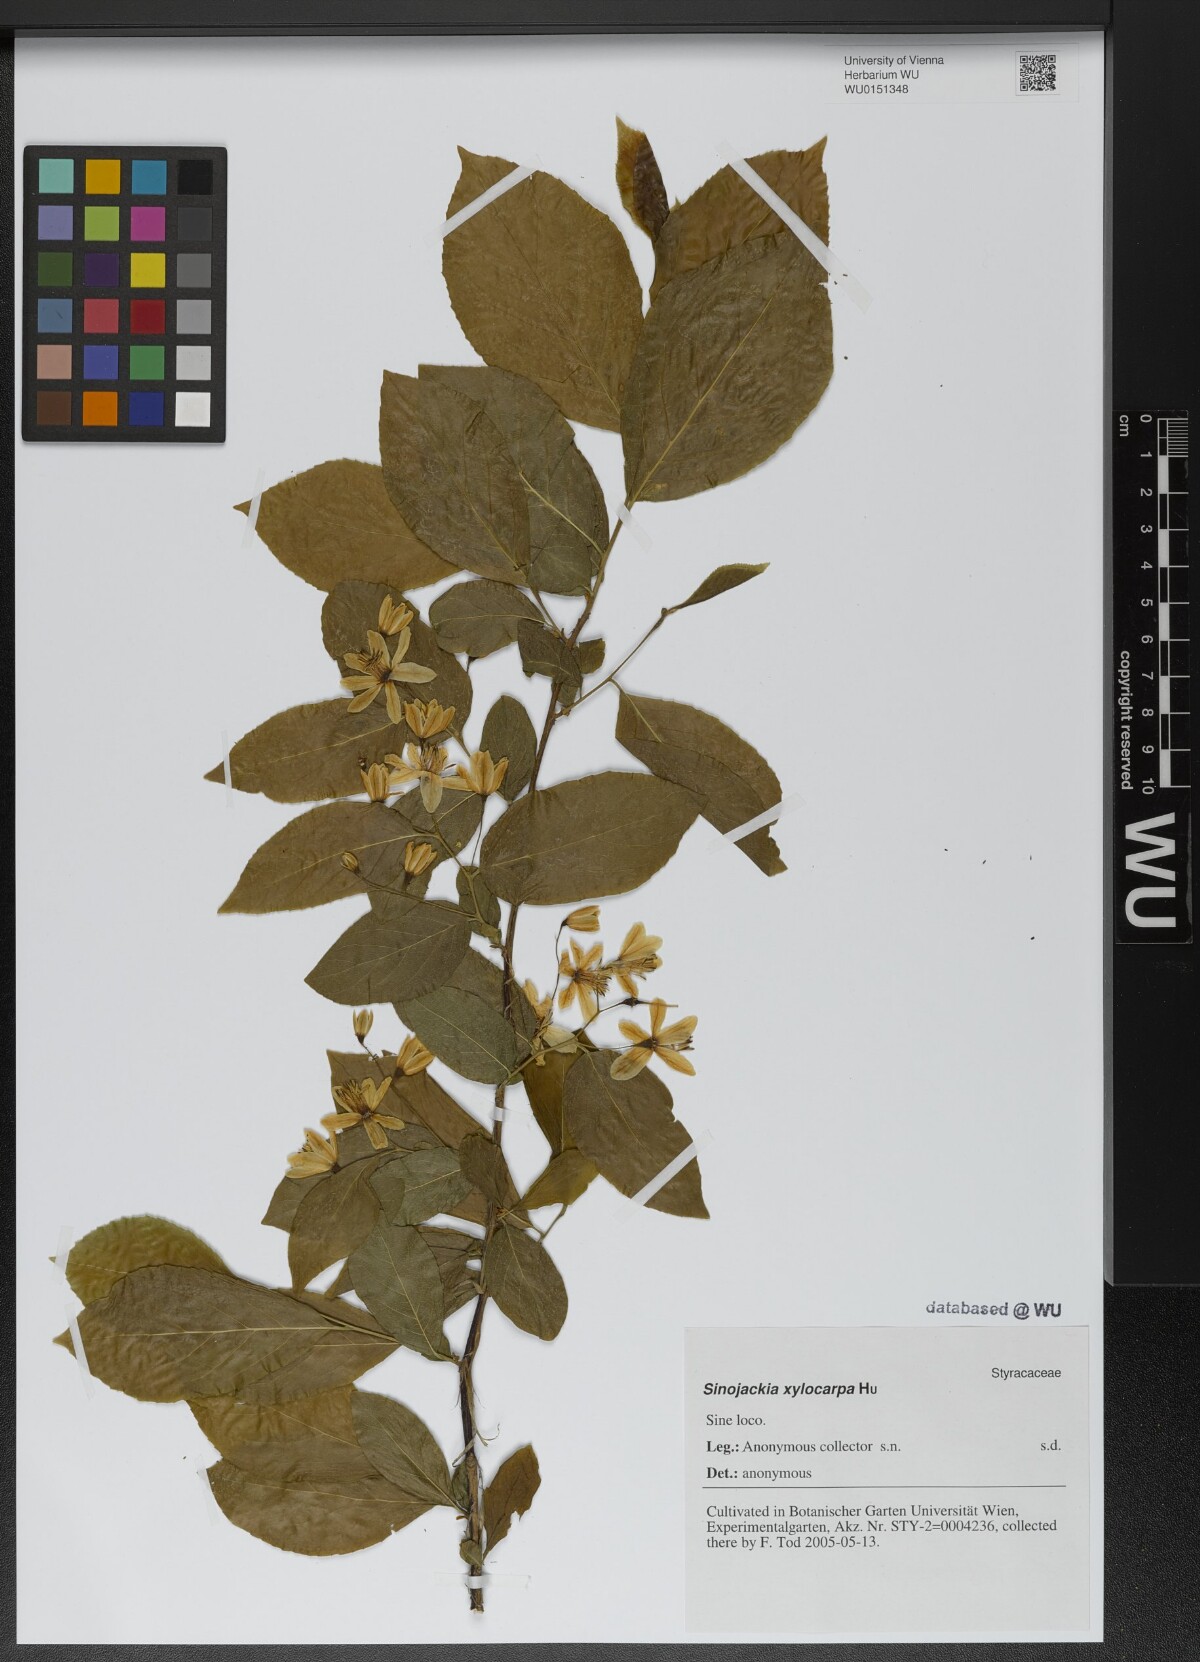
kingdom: Plantae
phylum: Tracheophyta
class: Magnoliopsida
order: Ericales
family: Styracaceae
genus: Sinojackia
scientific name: Sinojackia xylocarpa
